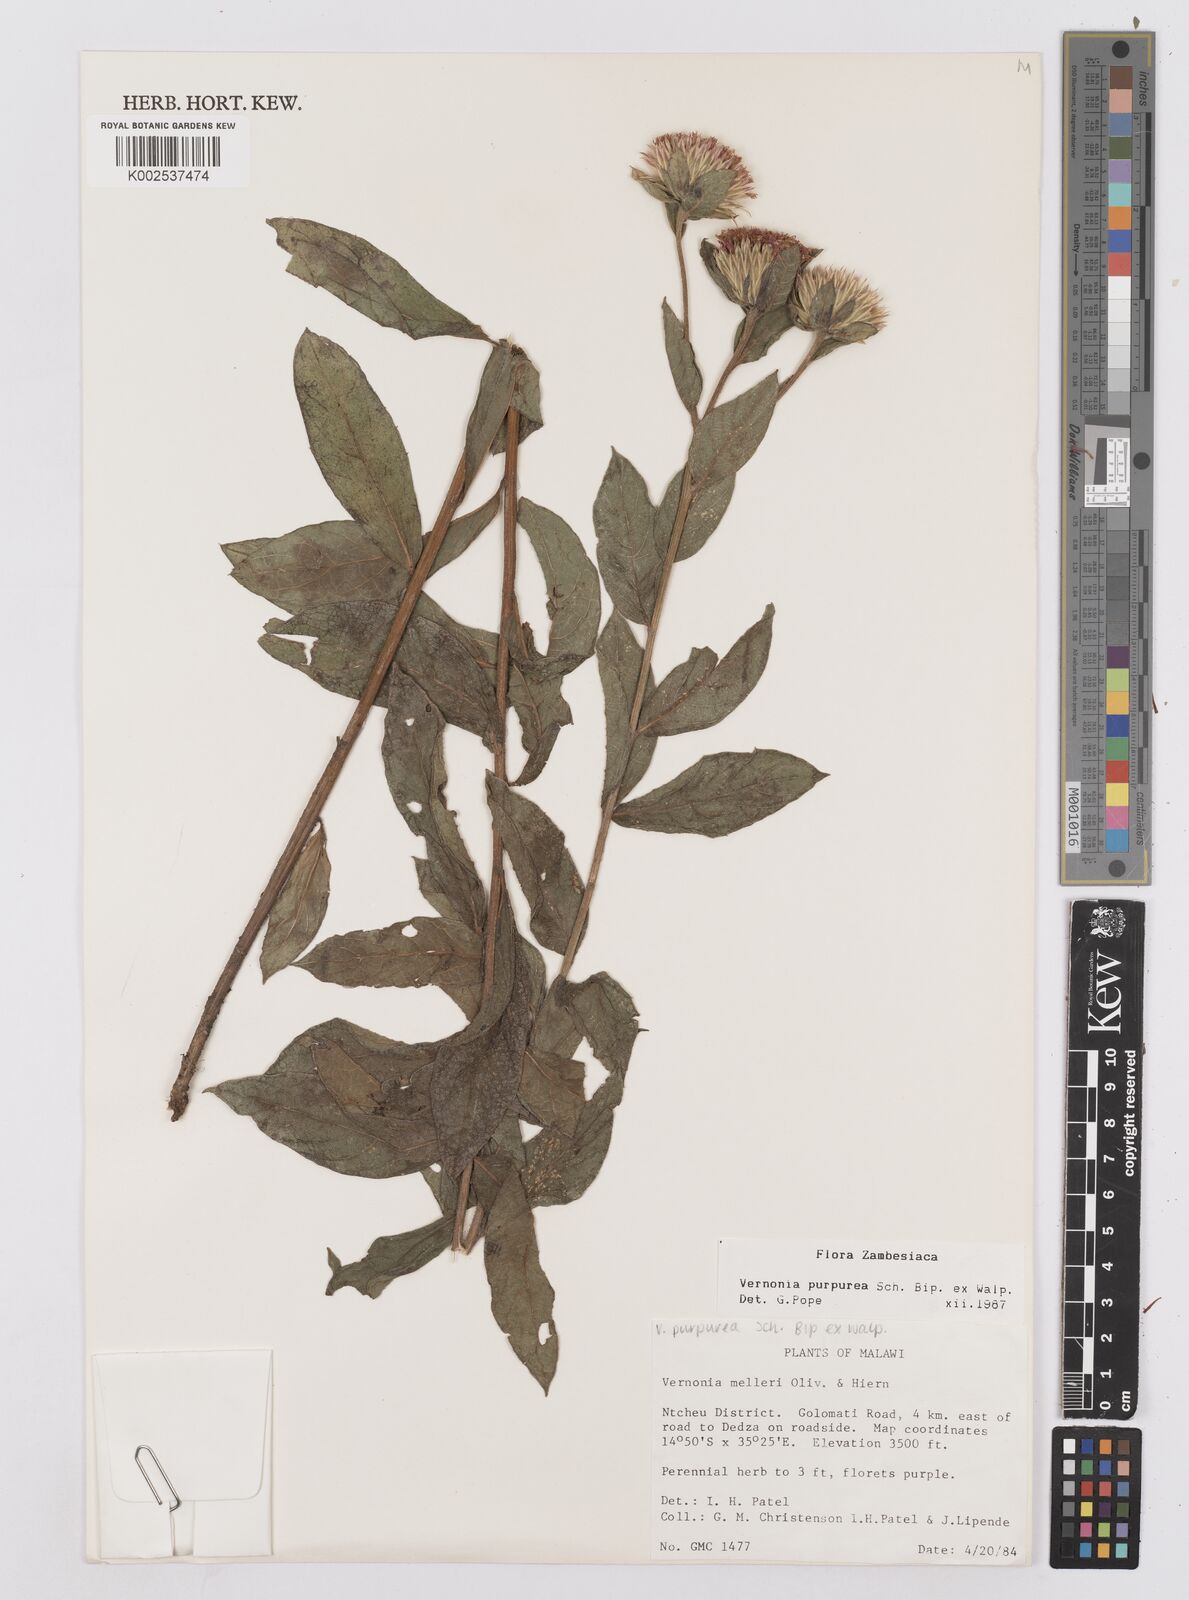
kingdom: Plantae
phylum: Tracheophyta
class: Magnoliopsida
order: Asterales
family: Asteraceae
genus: Nothovernonia
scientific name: Nothovernonia purpurea
